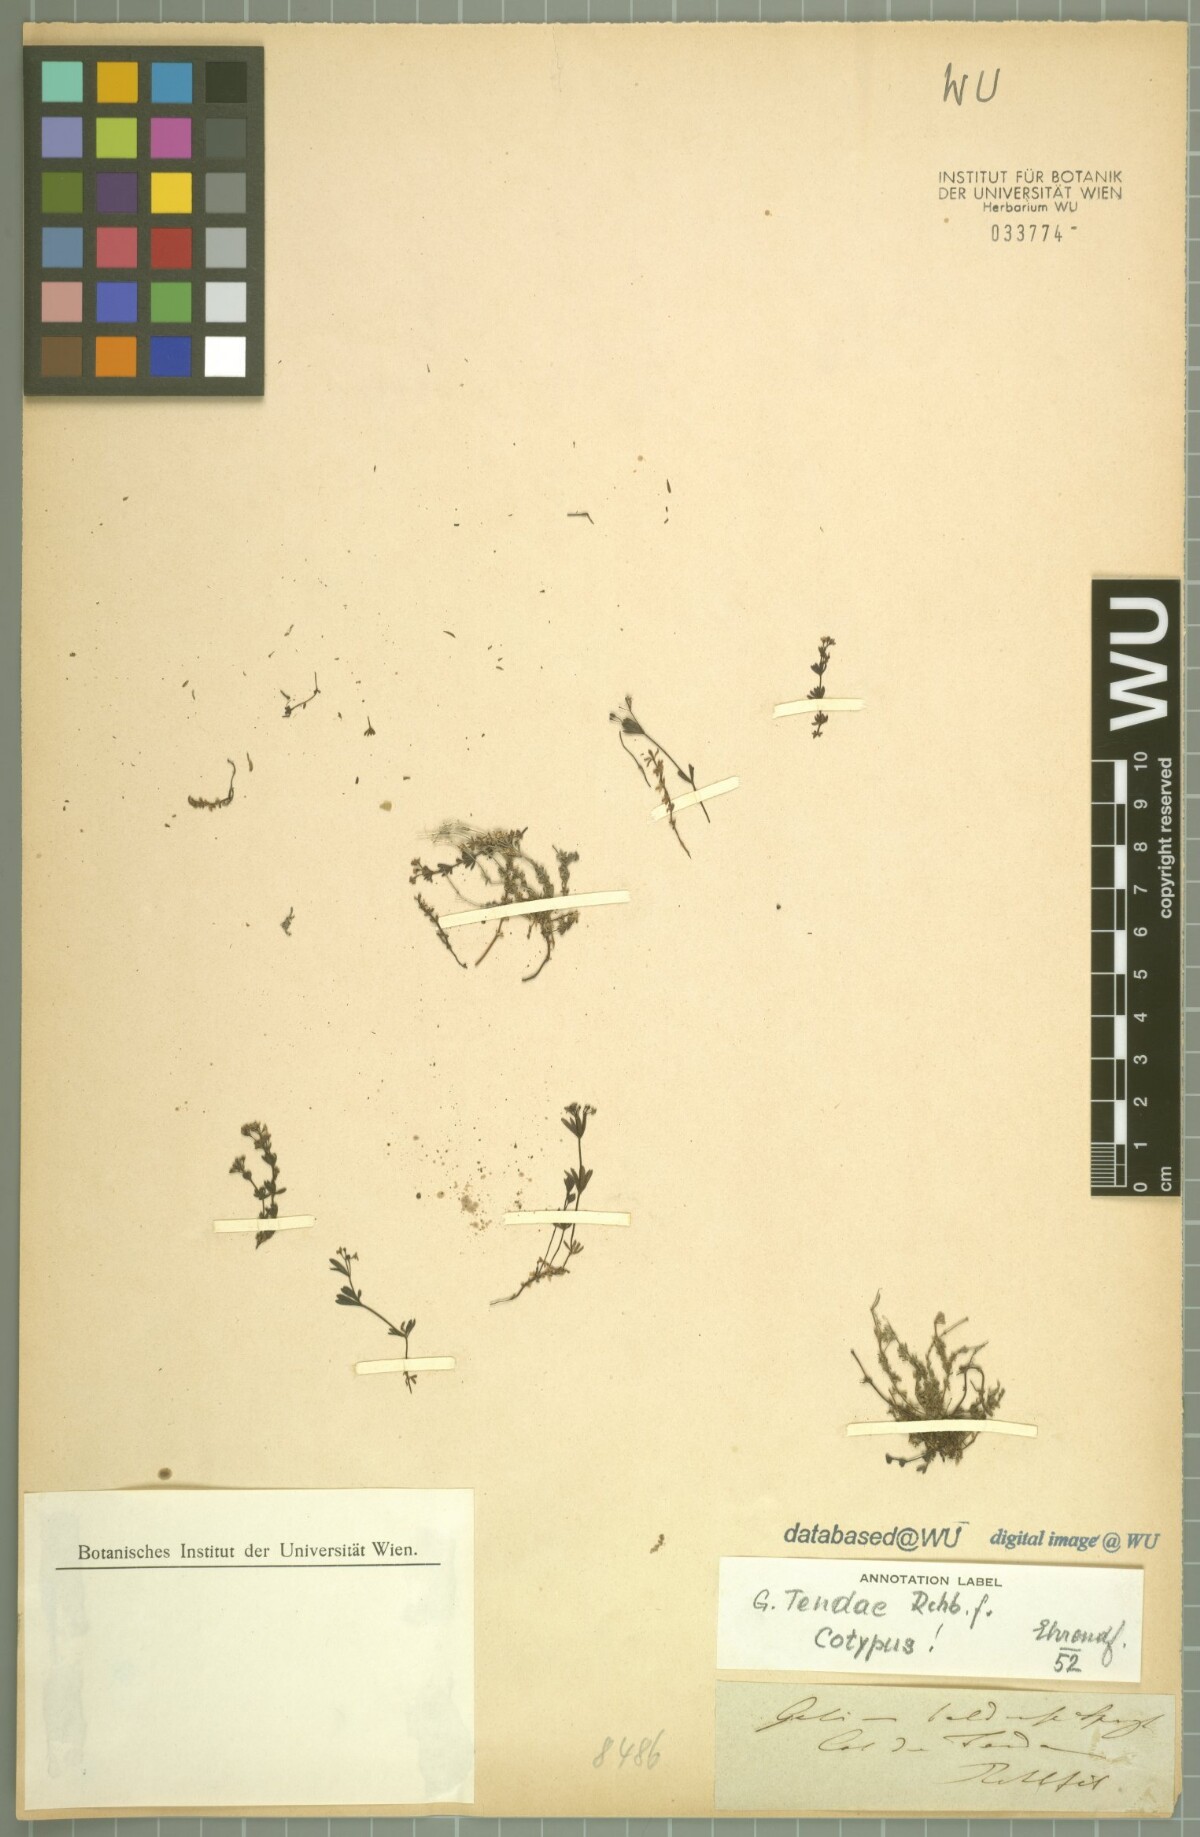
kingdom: Plantae
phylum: Tracheophyta
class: Magnoliopsida
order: Gentianales
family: Rubiaceae
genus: Galium
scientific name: Galium tendae
